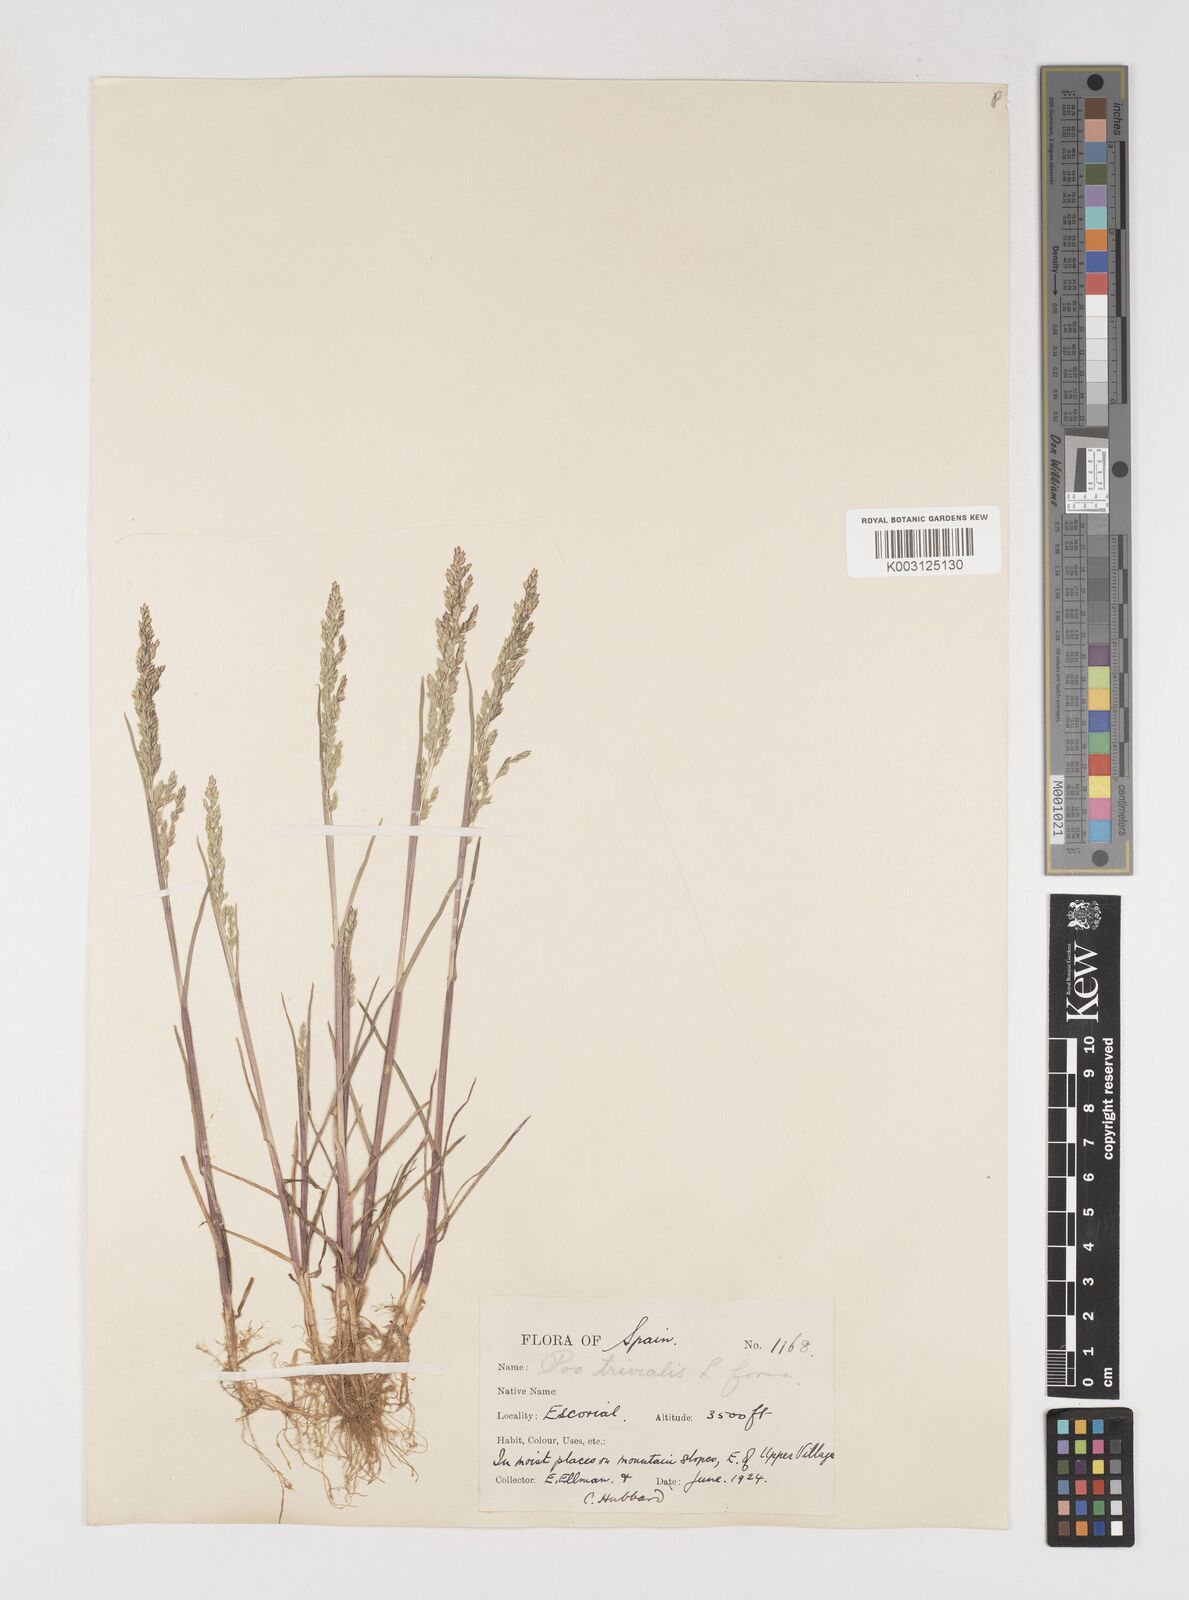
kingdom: Plantae
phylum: Tracheophyta
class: Liliopsida
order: Poales
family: Poaceae
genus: Poa
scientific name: Poa trivialis
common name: Rough bluegrass
